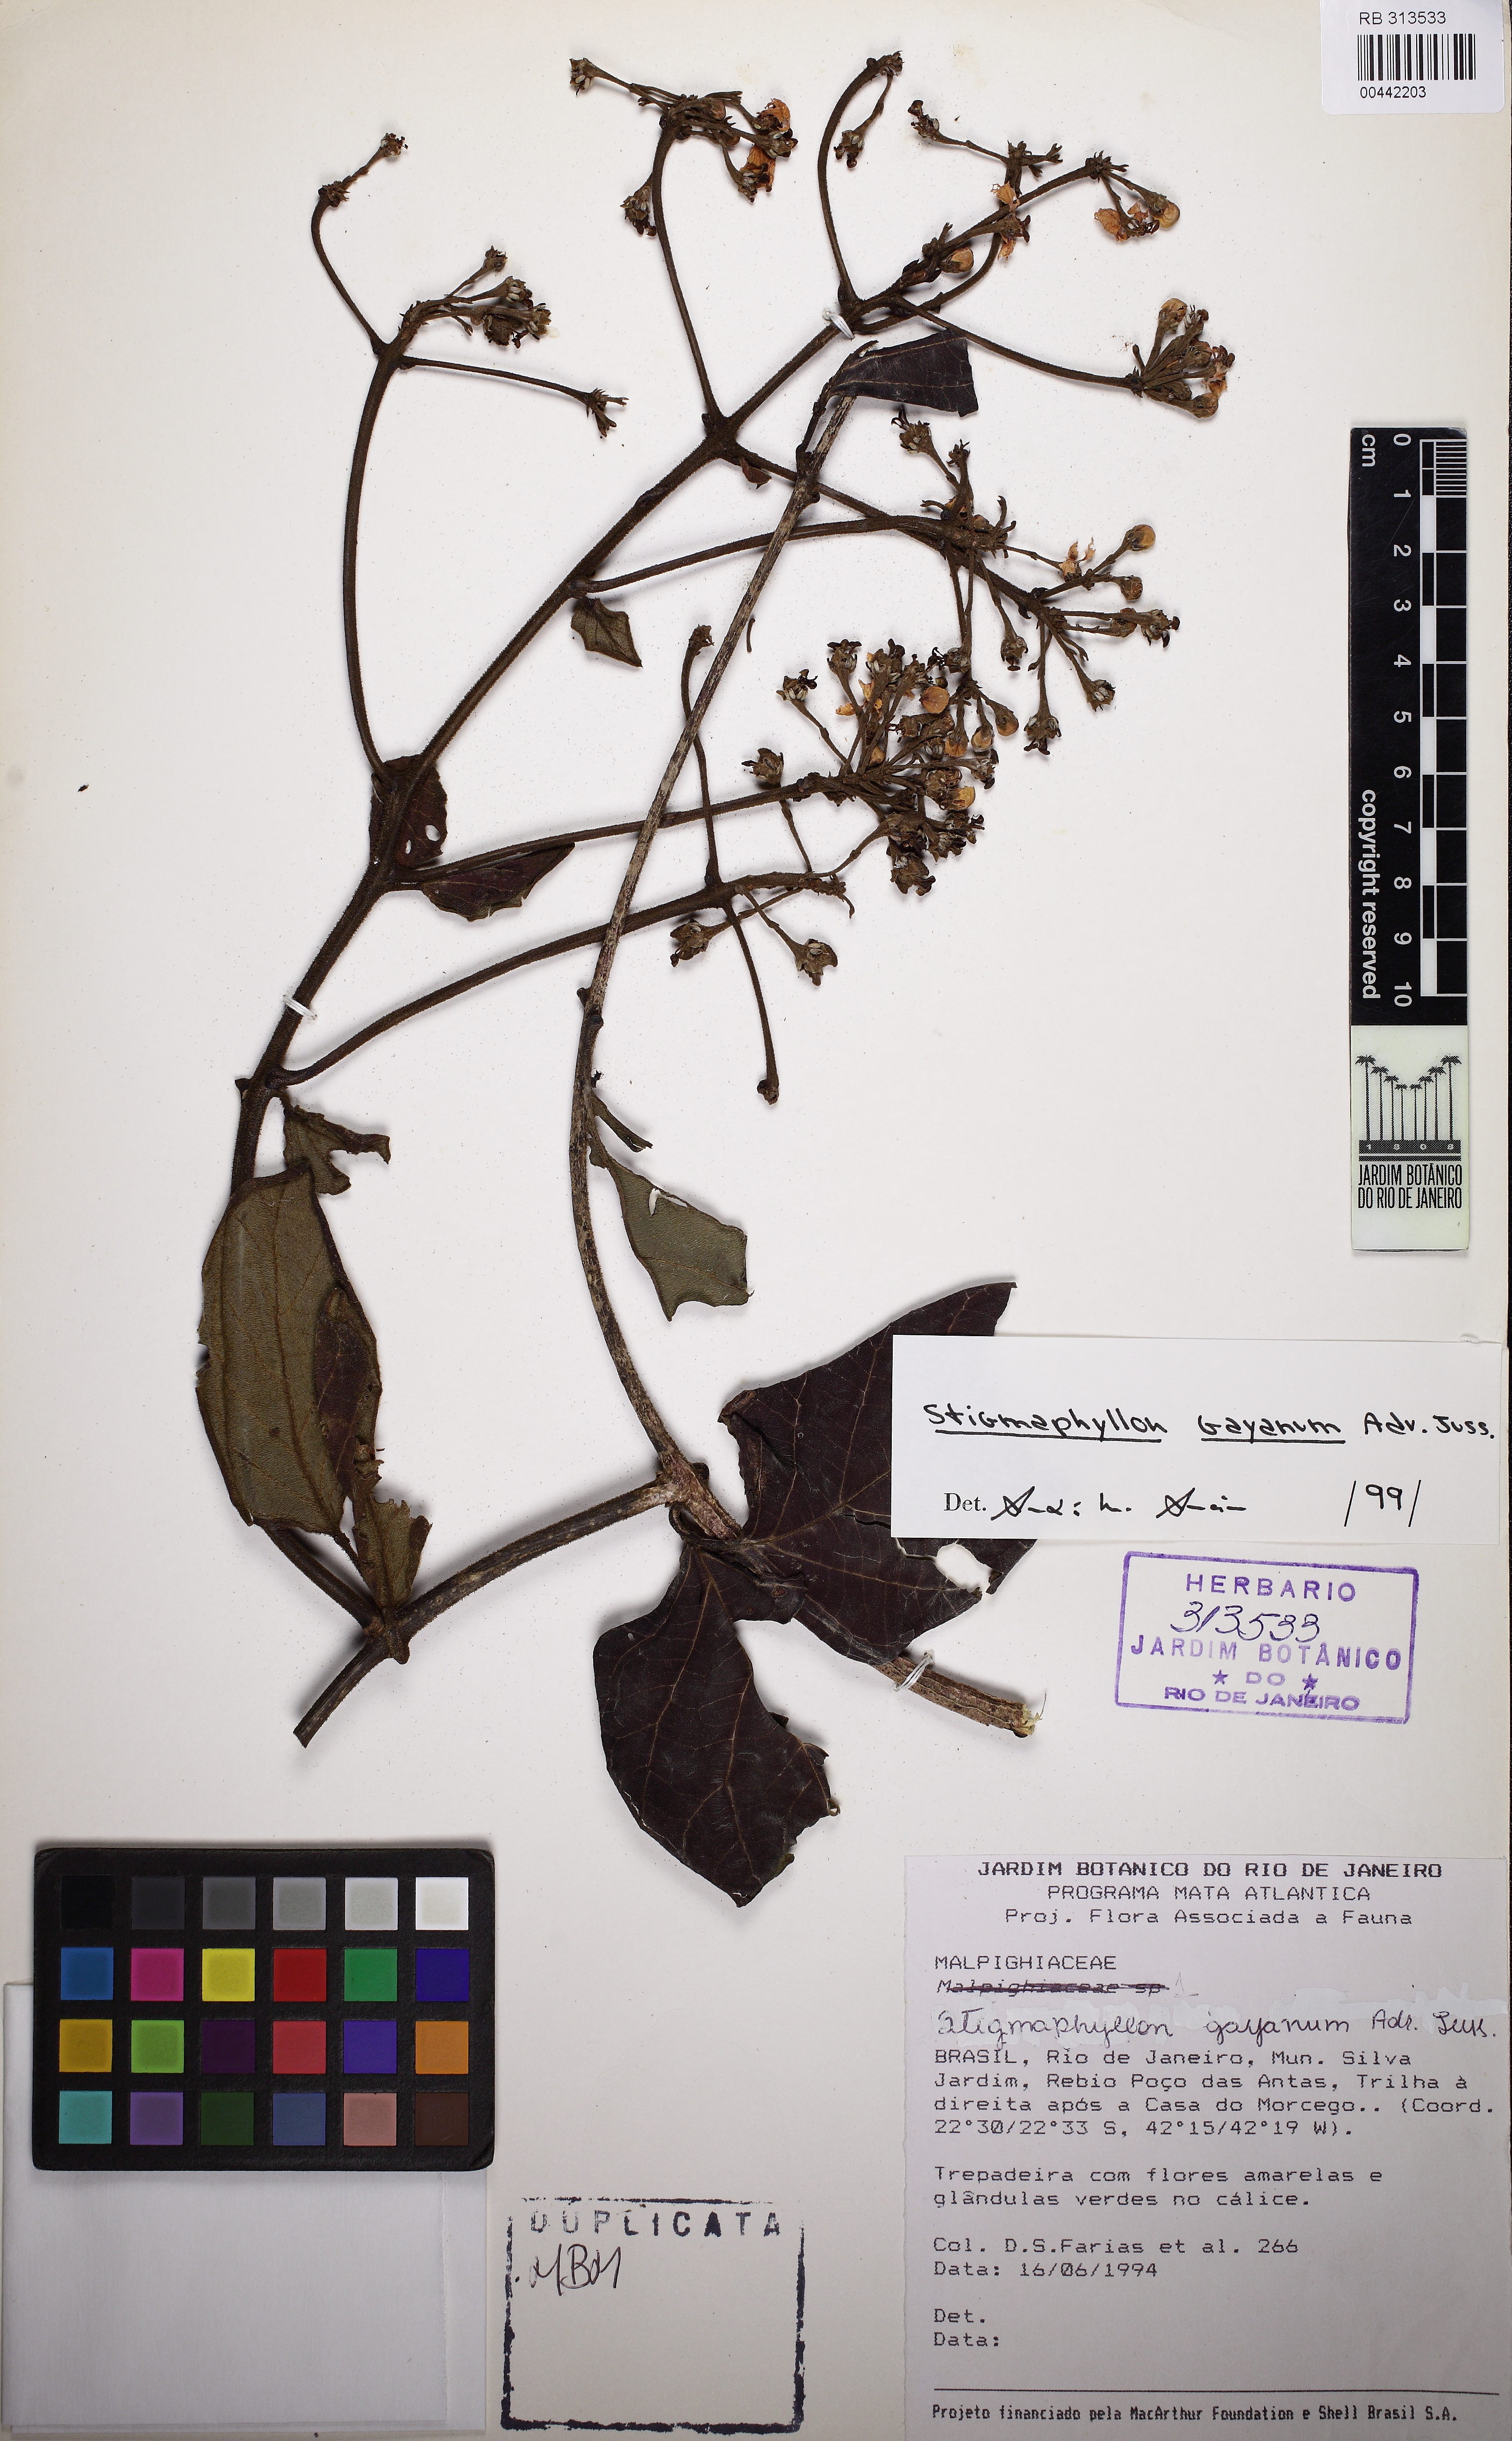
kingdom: Plantae
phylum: Tracheophyta
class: Magnoliopsida
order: Malpighiales
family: Malpighiaceae
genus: Stigmaphyllon
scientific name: Stigmaphyllon gayanum
